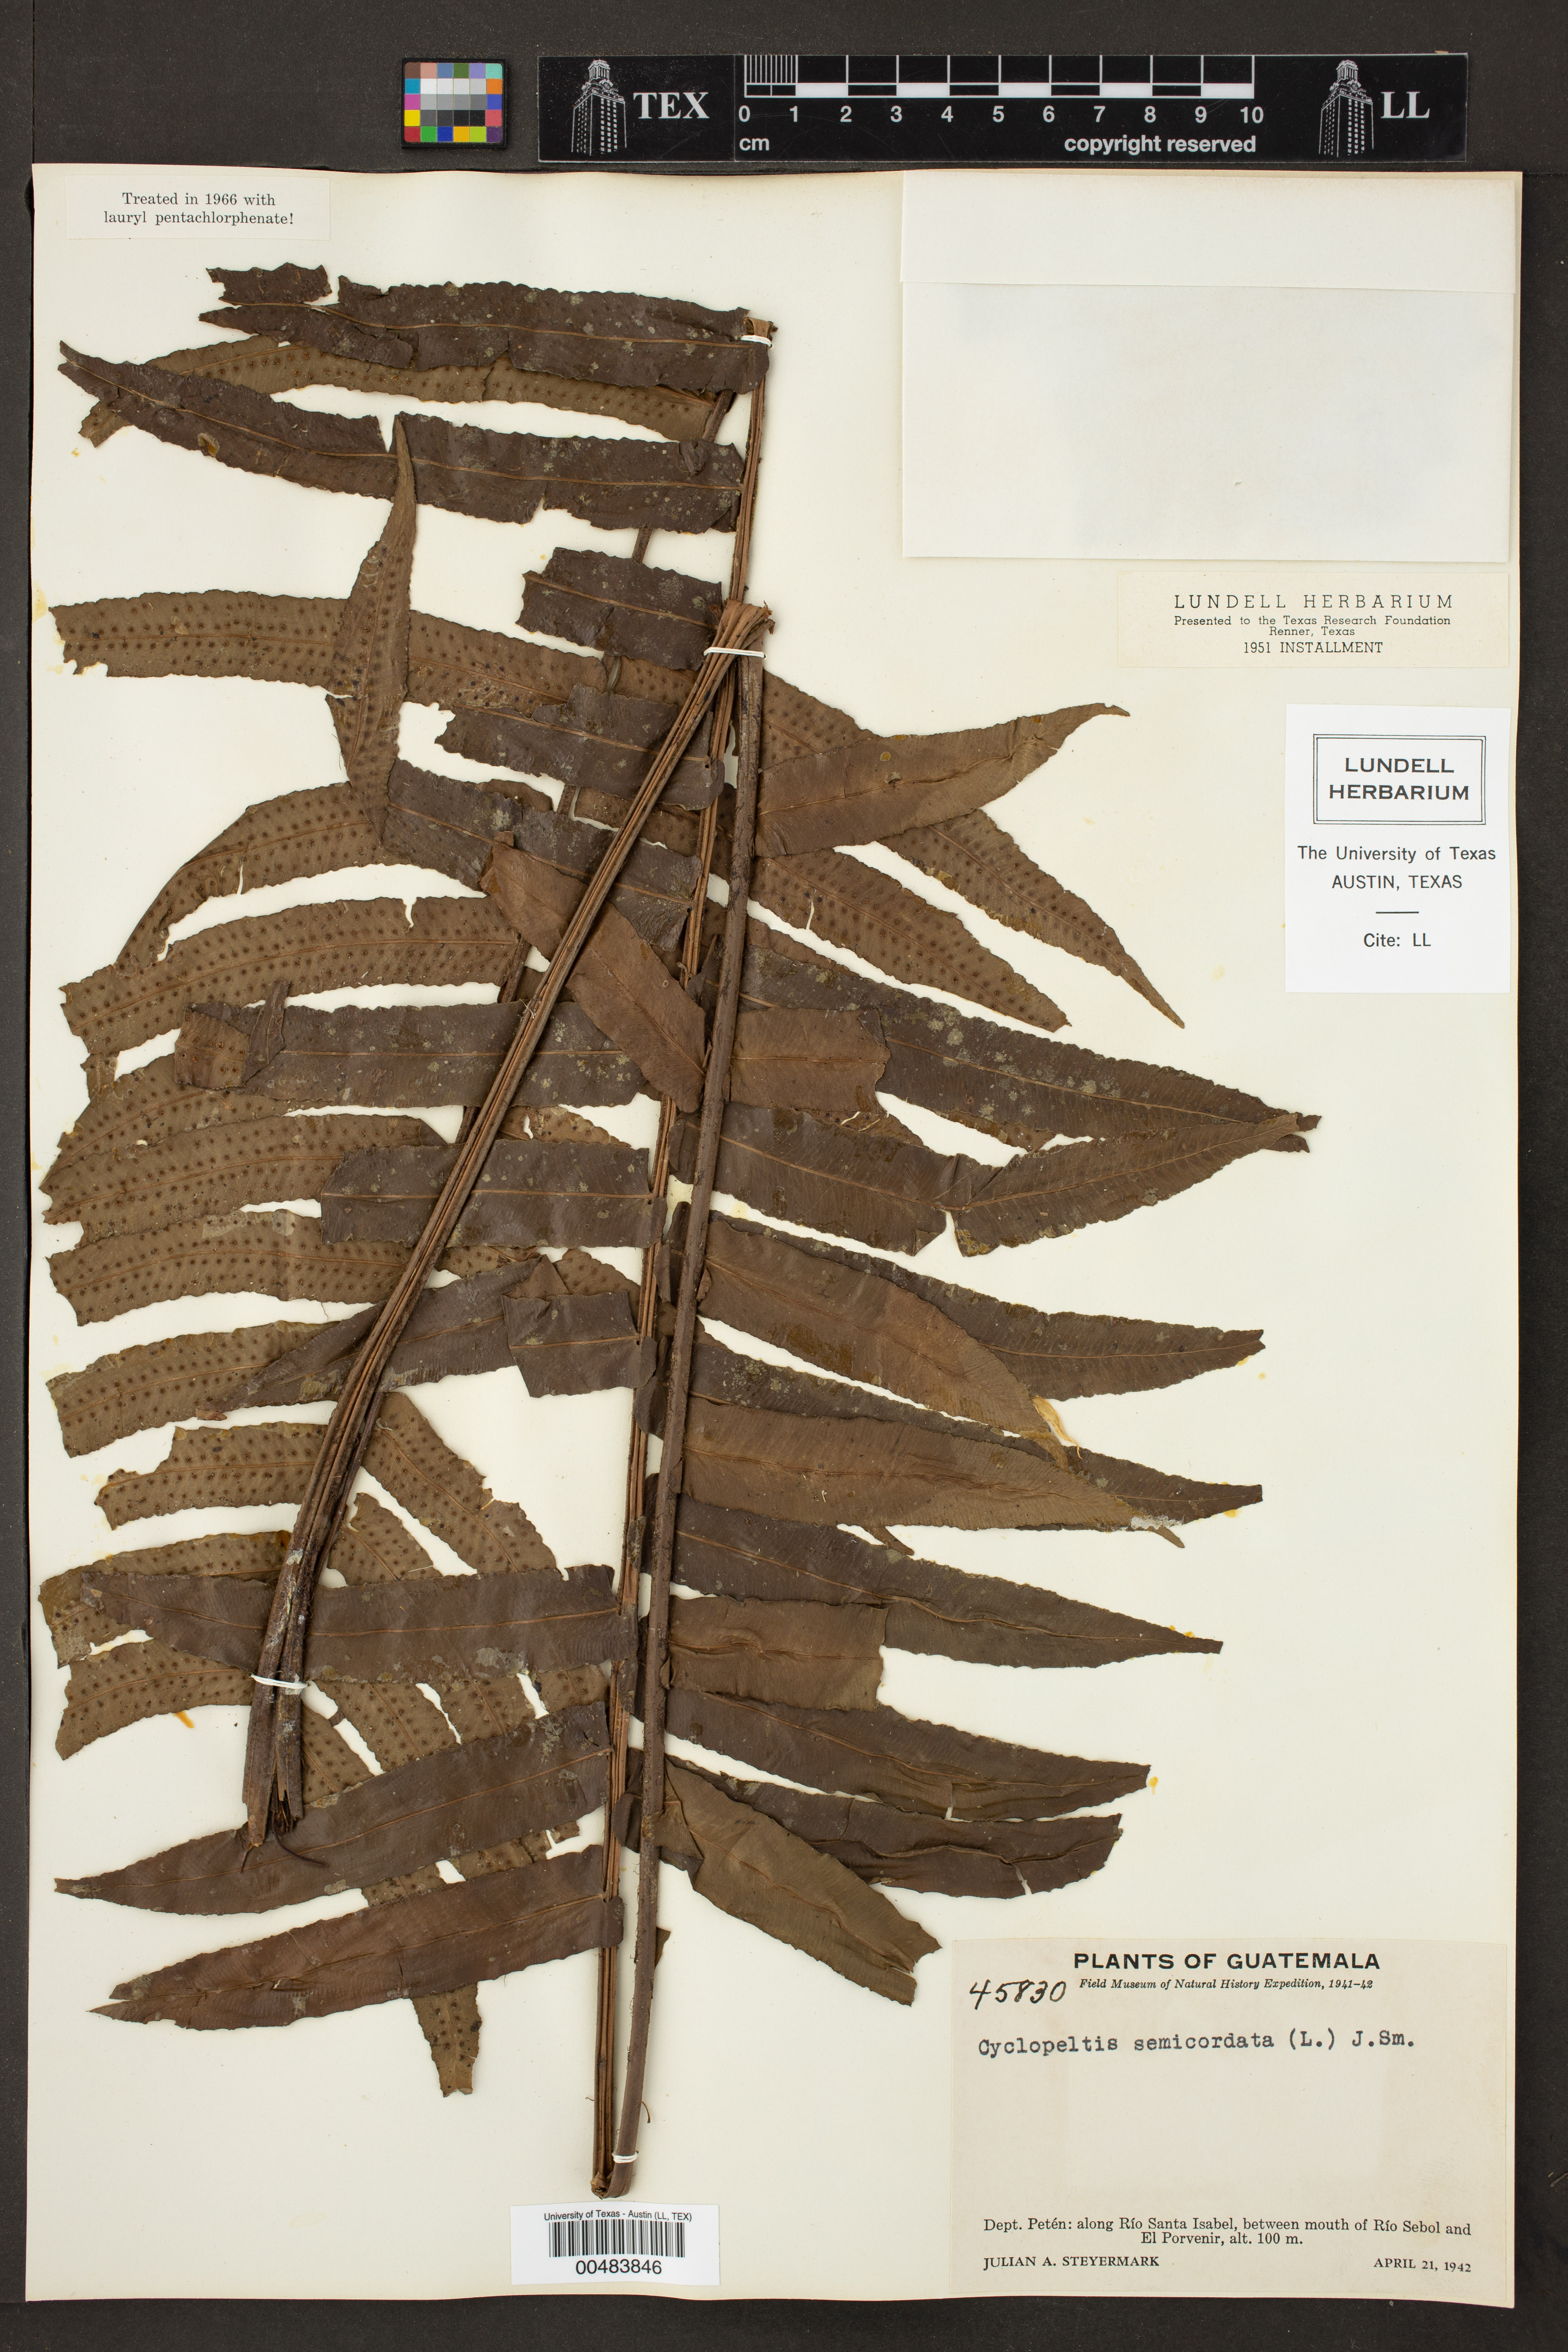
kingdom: Plantae
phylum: Tracheophyta
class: Polypodiopsida
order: Polypodiales
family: Lomariopsidaceae
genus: Cyclopeltis
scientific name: Cyclopeltis semicordata
